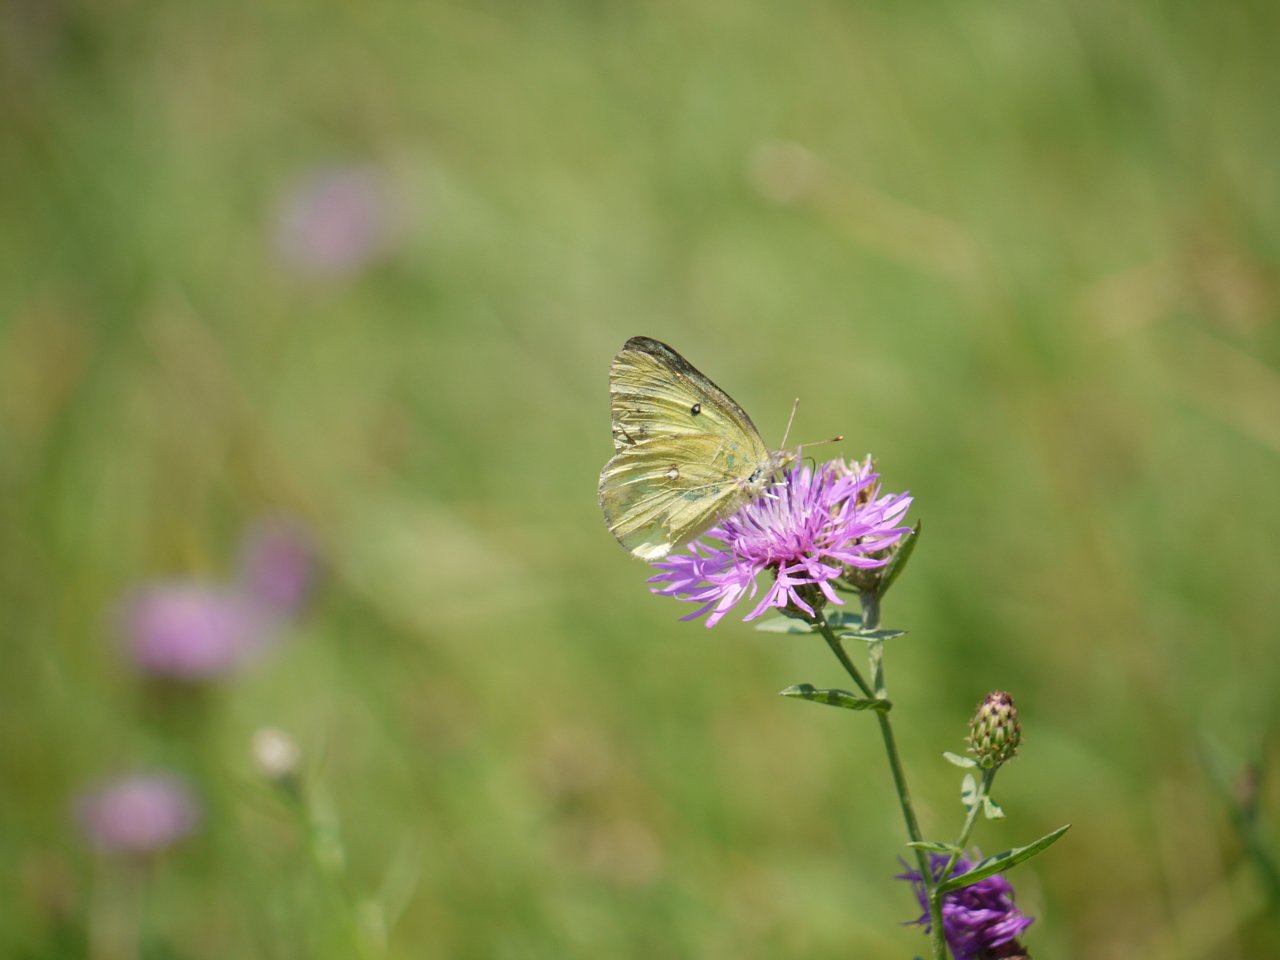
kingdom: Animalia
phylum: Arthropoda
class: Insecta
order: Lepidoptera
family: Pieridae
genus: Colias
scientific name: Colias philodice
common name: Clouded Sulphur
